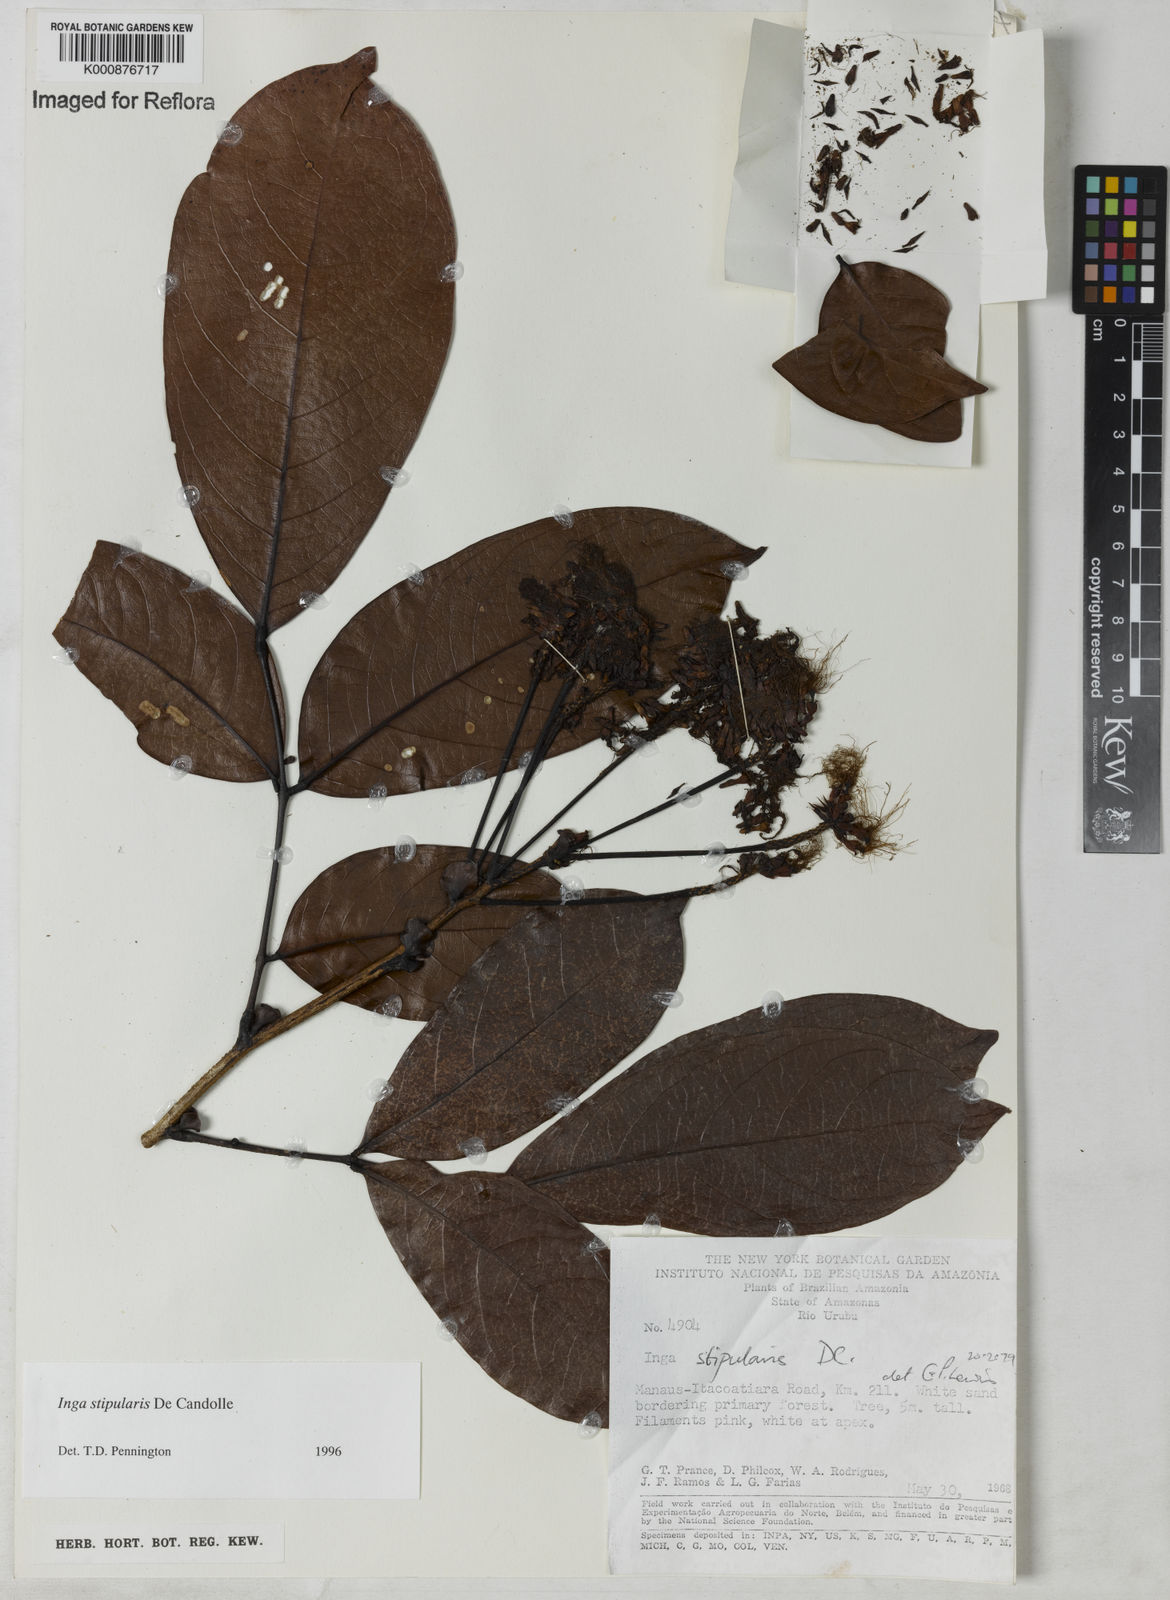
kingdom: Plantae
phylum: Tracheophyta
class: Magnoliopsida
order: Fabales
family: Fabaceae
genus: Inga
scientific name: Inga stipularis
